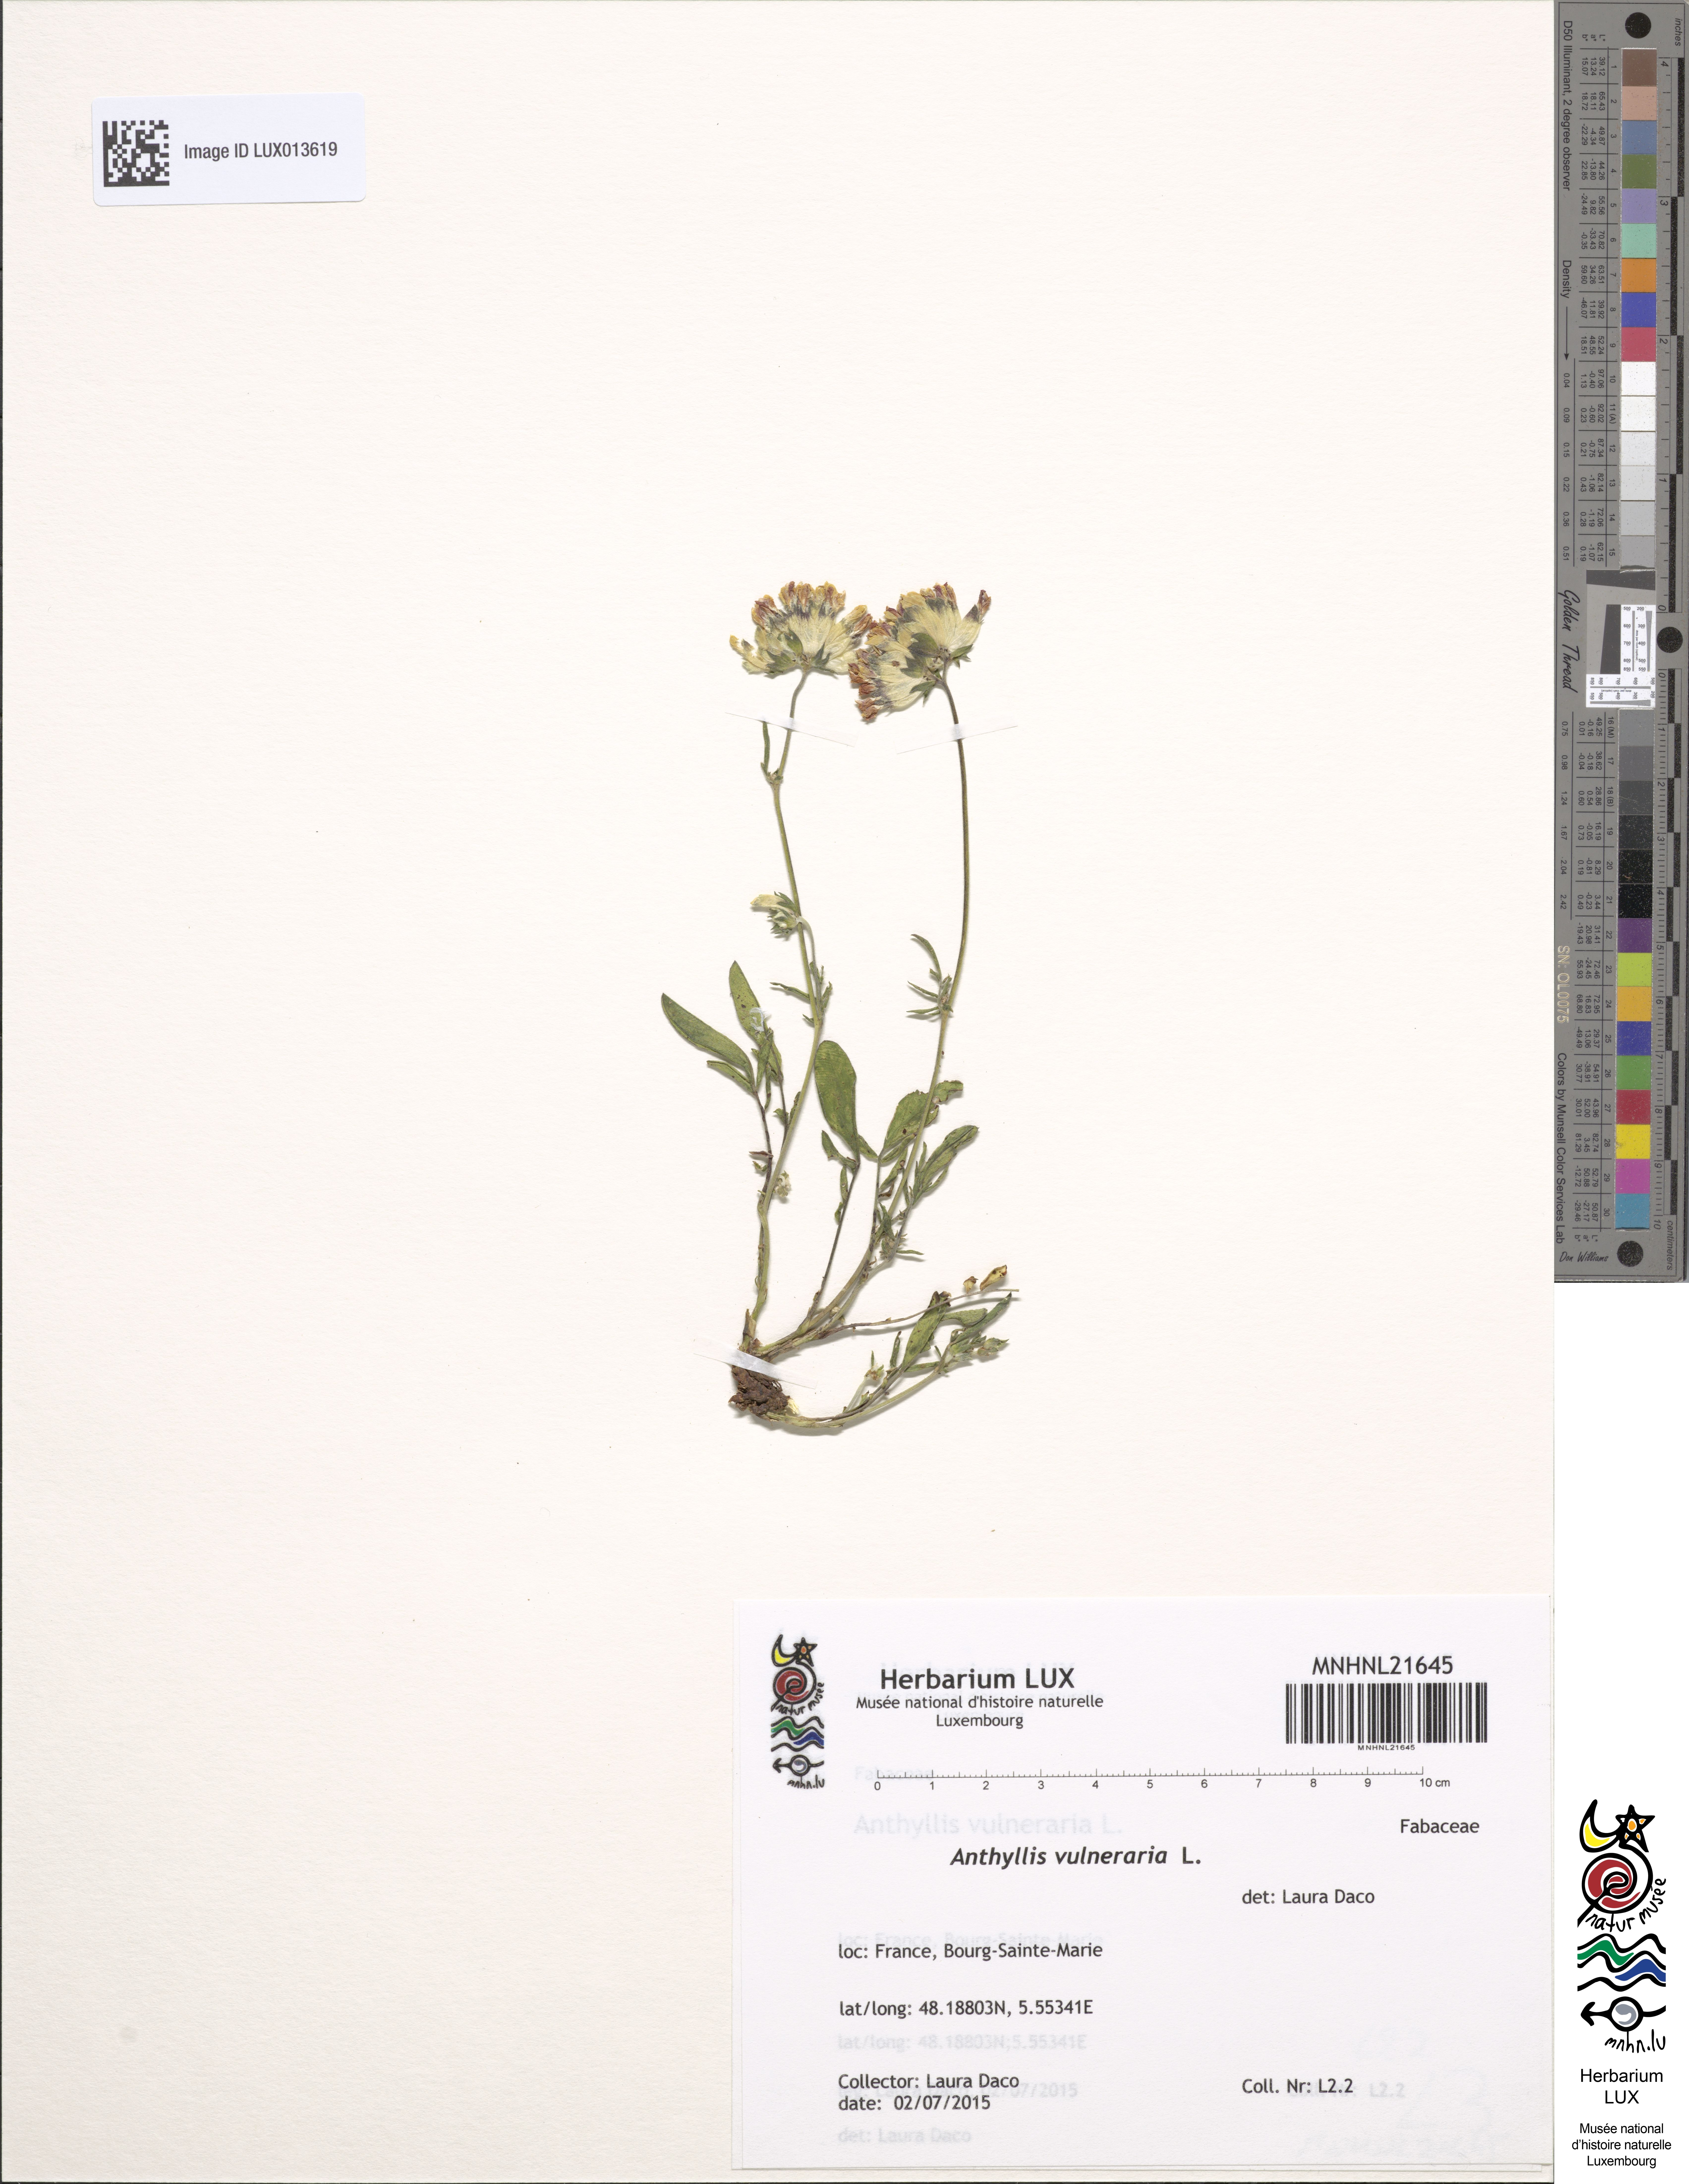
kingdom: Plantae
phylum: Tracheophyta
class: Magnoliopsida
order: Fabales
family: Fabaceae
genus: Anthyllis
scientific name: Anthyllis vulneraria
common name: Kidney vetch
